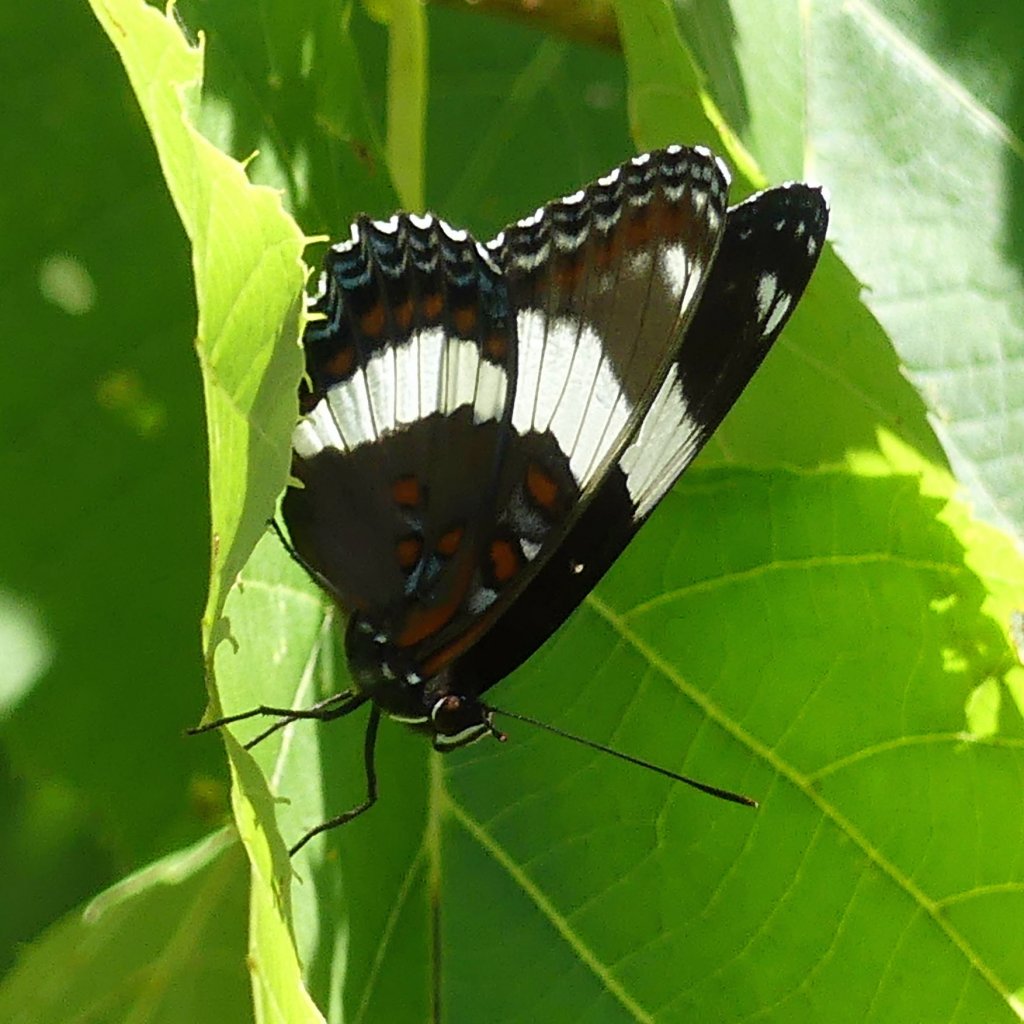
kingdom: Animalia
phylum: Arthropoda
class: Insecta
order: Lepidoptera
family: Nymphalidae
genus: Limenitis
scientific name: Limenitis arthemis
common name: Red-spotted Admiral
